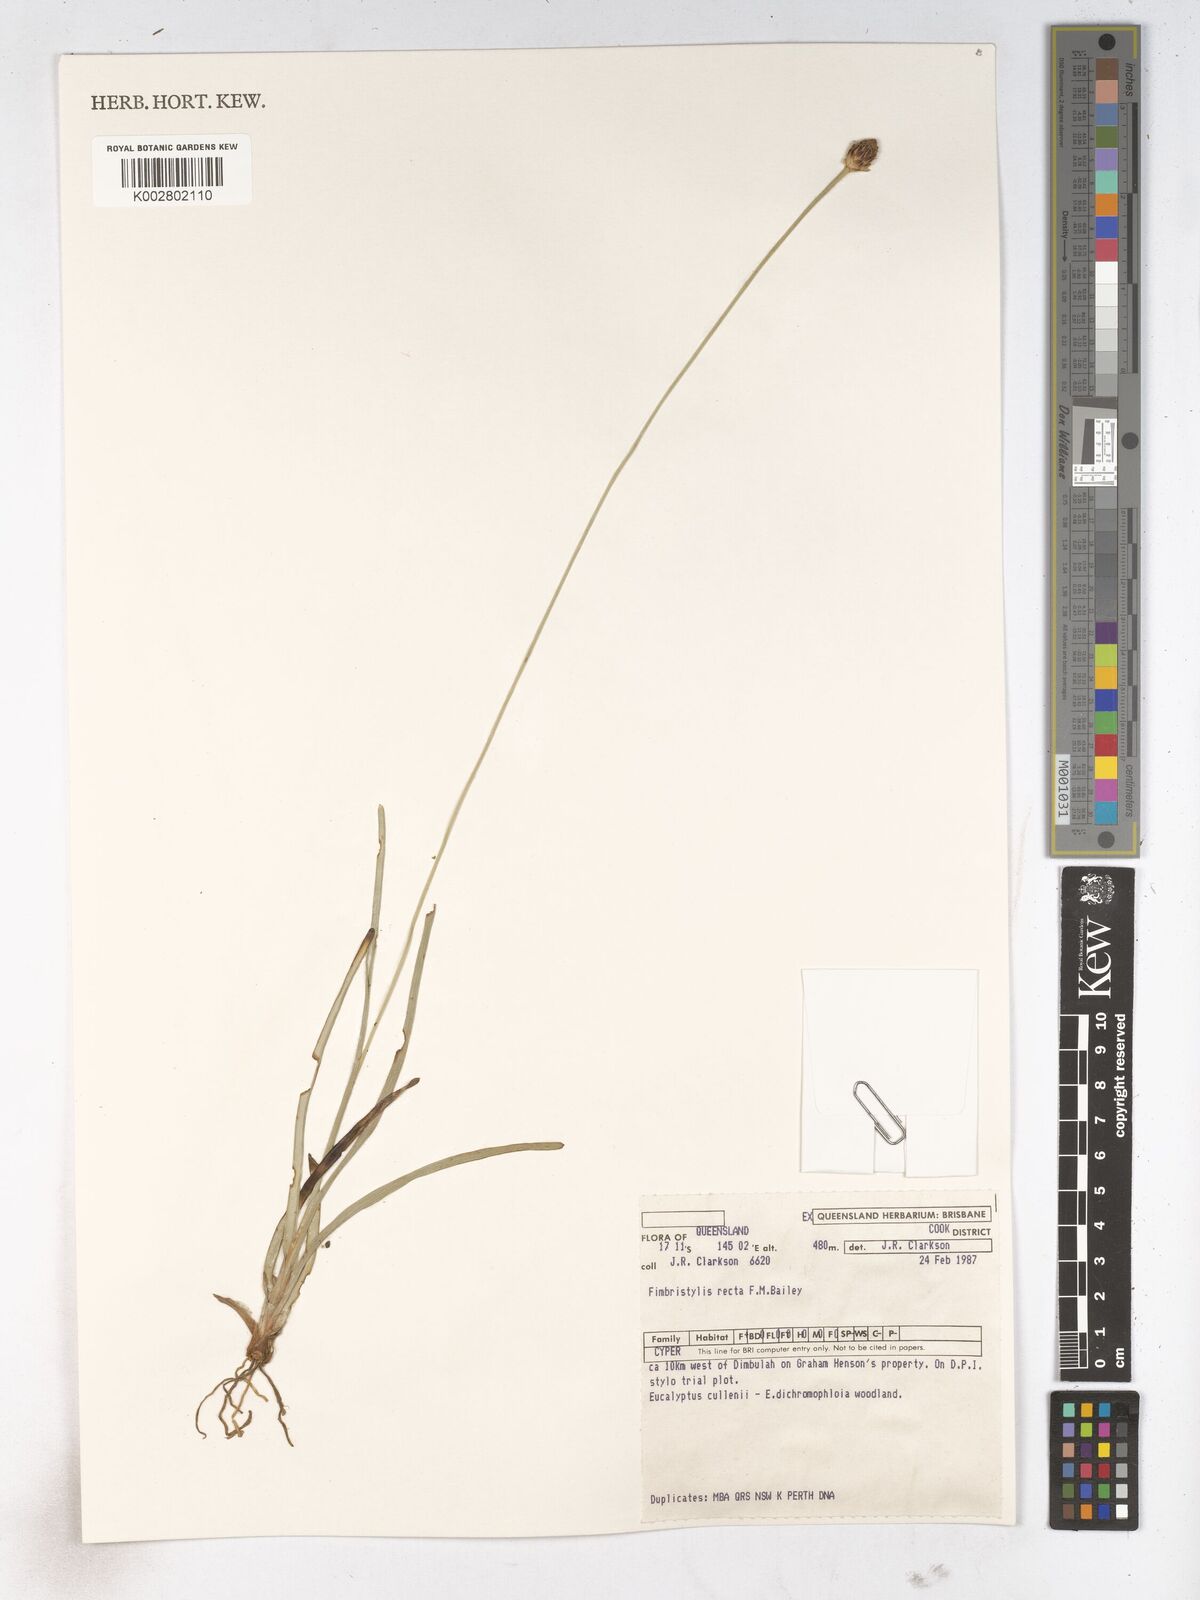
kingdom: Plantae
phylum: Tracheophyta
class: Liliopsida
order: Poales
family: Cyperaceae
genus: Fimbristylis
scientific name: Fimbristylis recta
